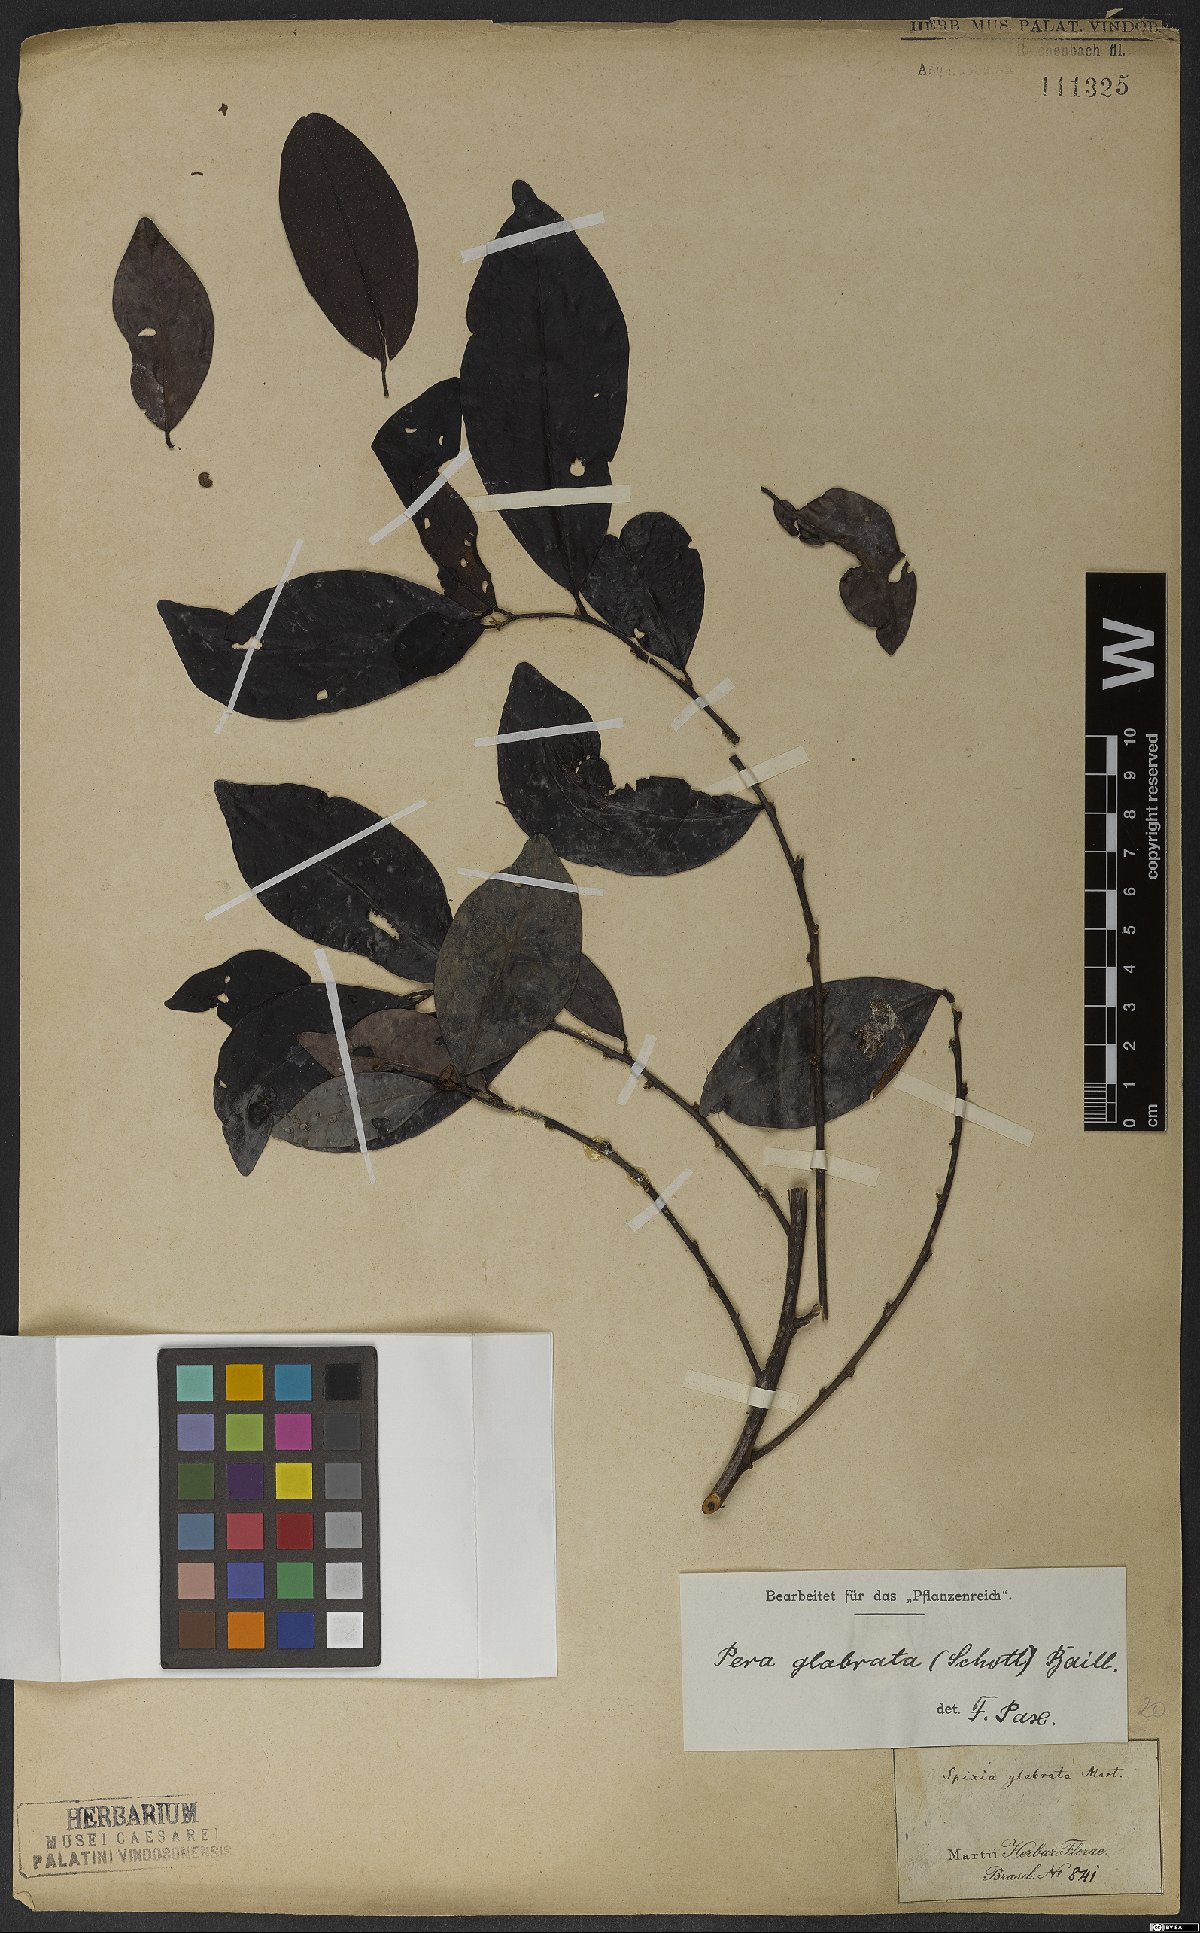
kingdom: Plantae
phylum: Tracheophyta
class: Magnoliopsida
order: Malpighiales
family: Peraceae
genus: Pera
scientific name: Pera glabrata
